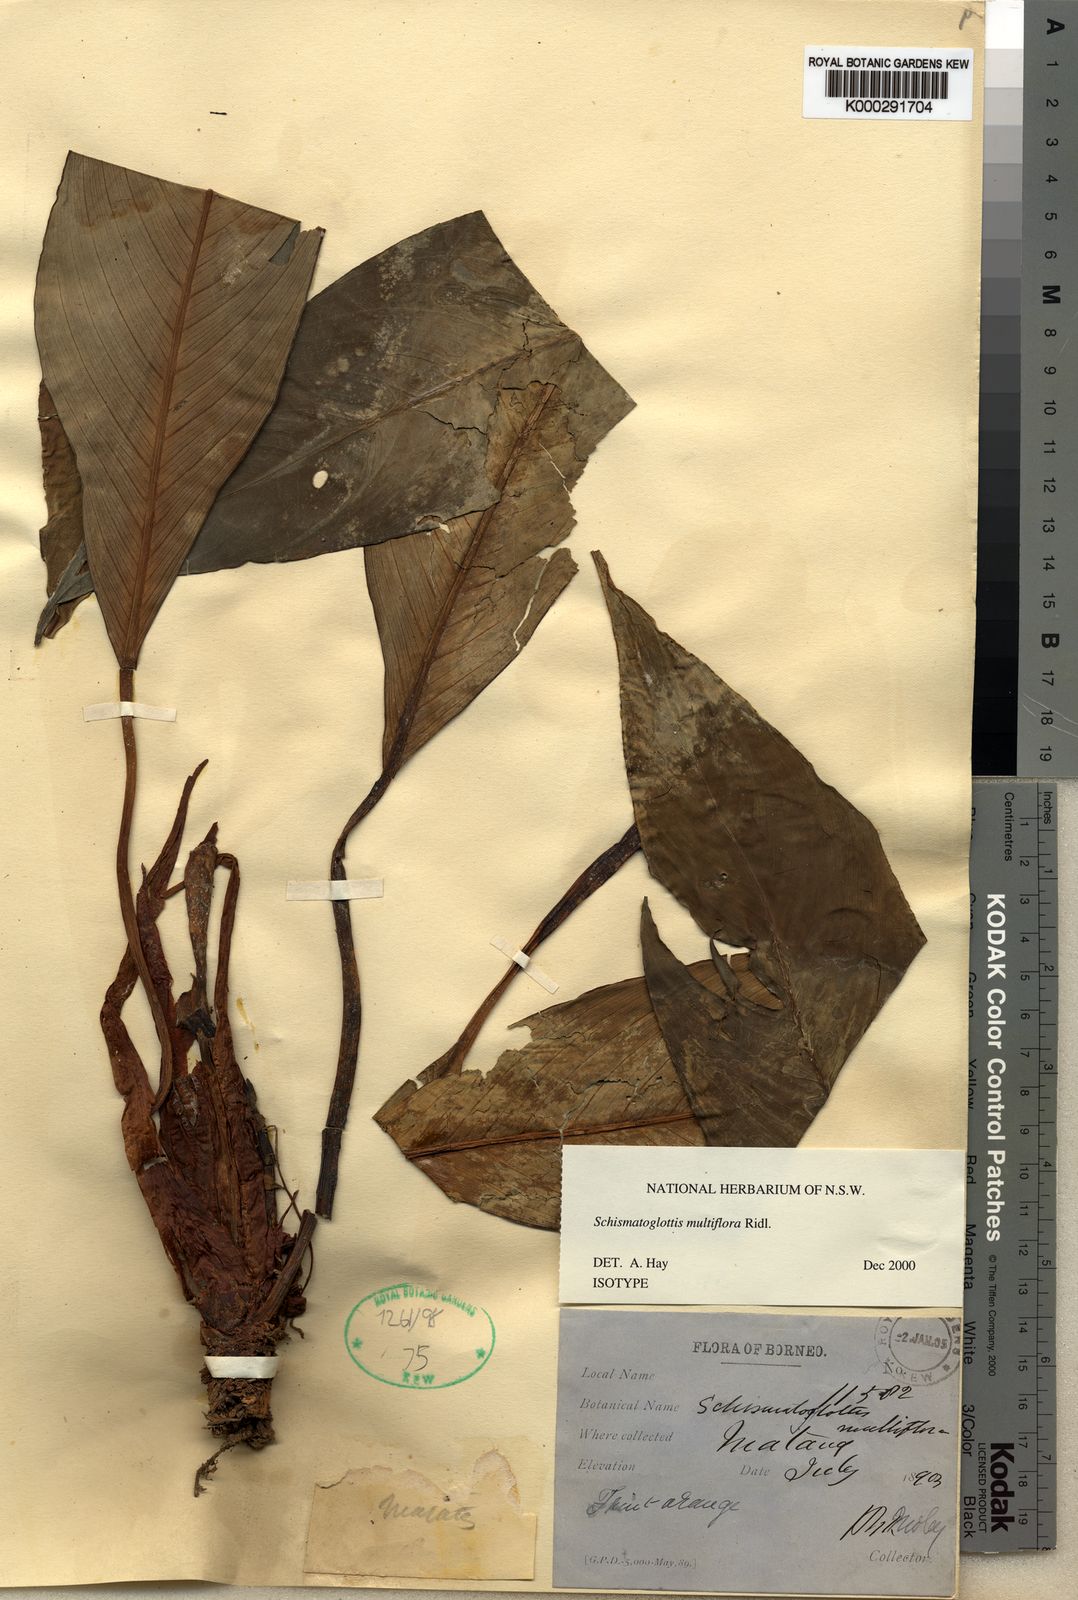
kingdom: Plantae
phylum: Tracheophyta
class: Liliopsida
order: Alismatales
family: Araceae
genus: Schismatoglottis
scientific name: Schismatoglottis multiflora
